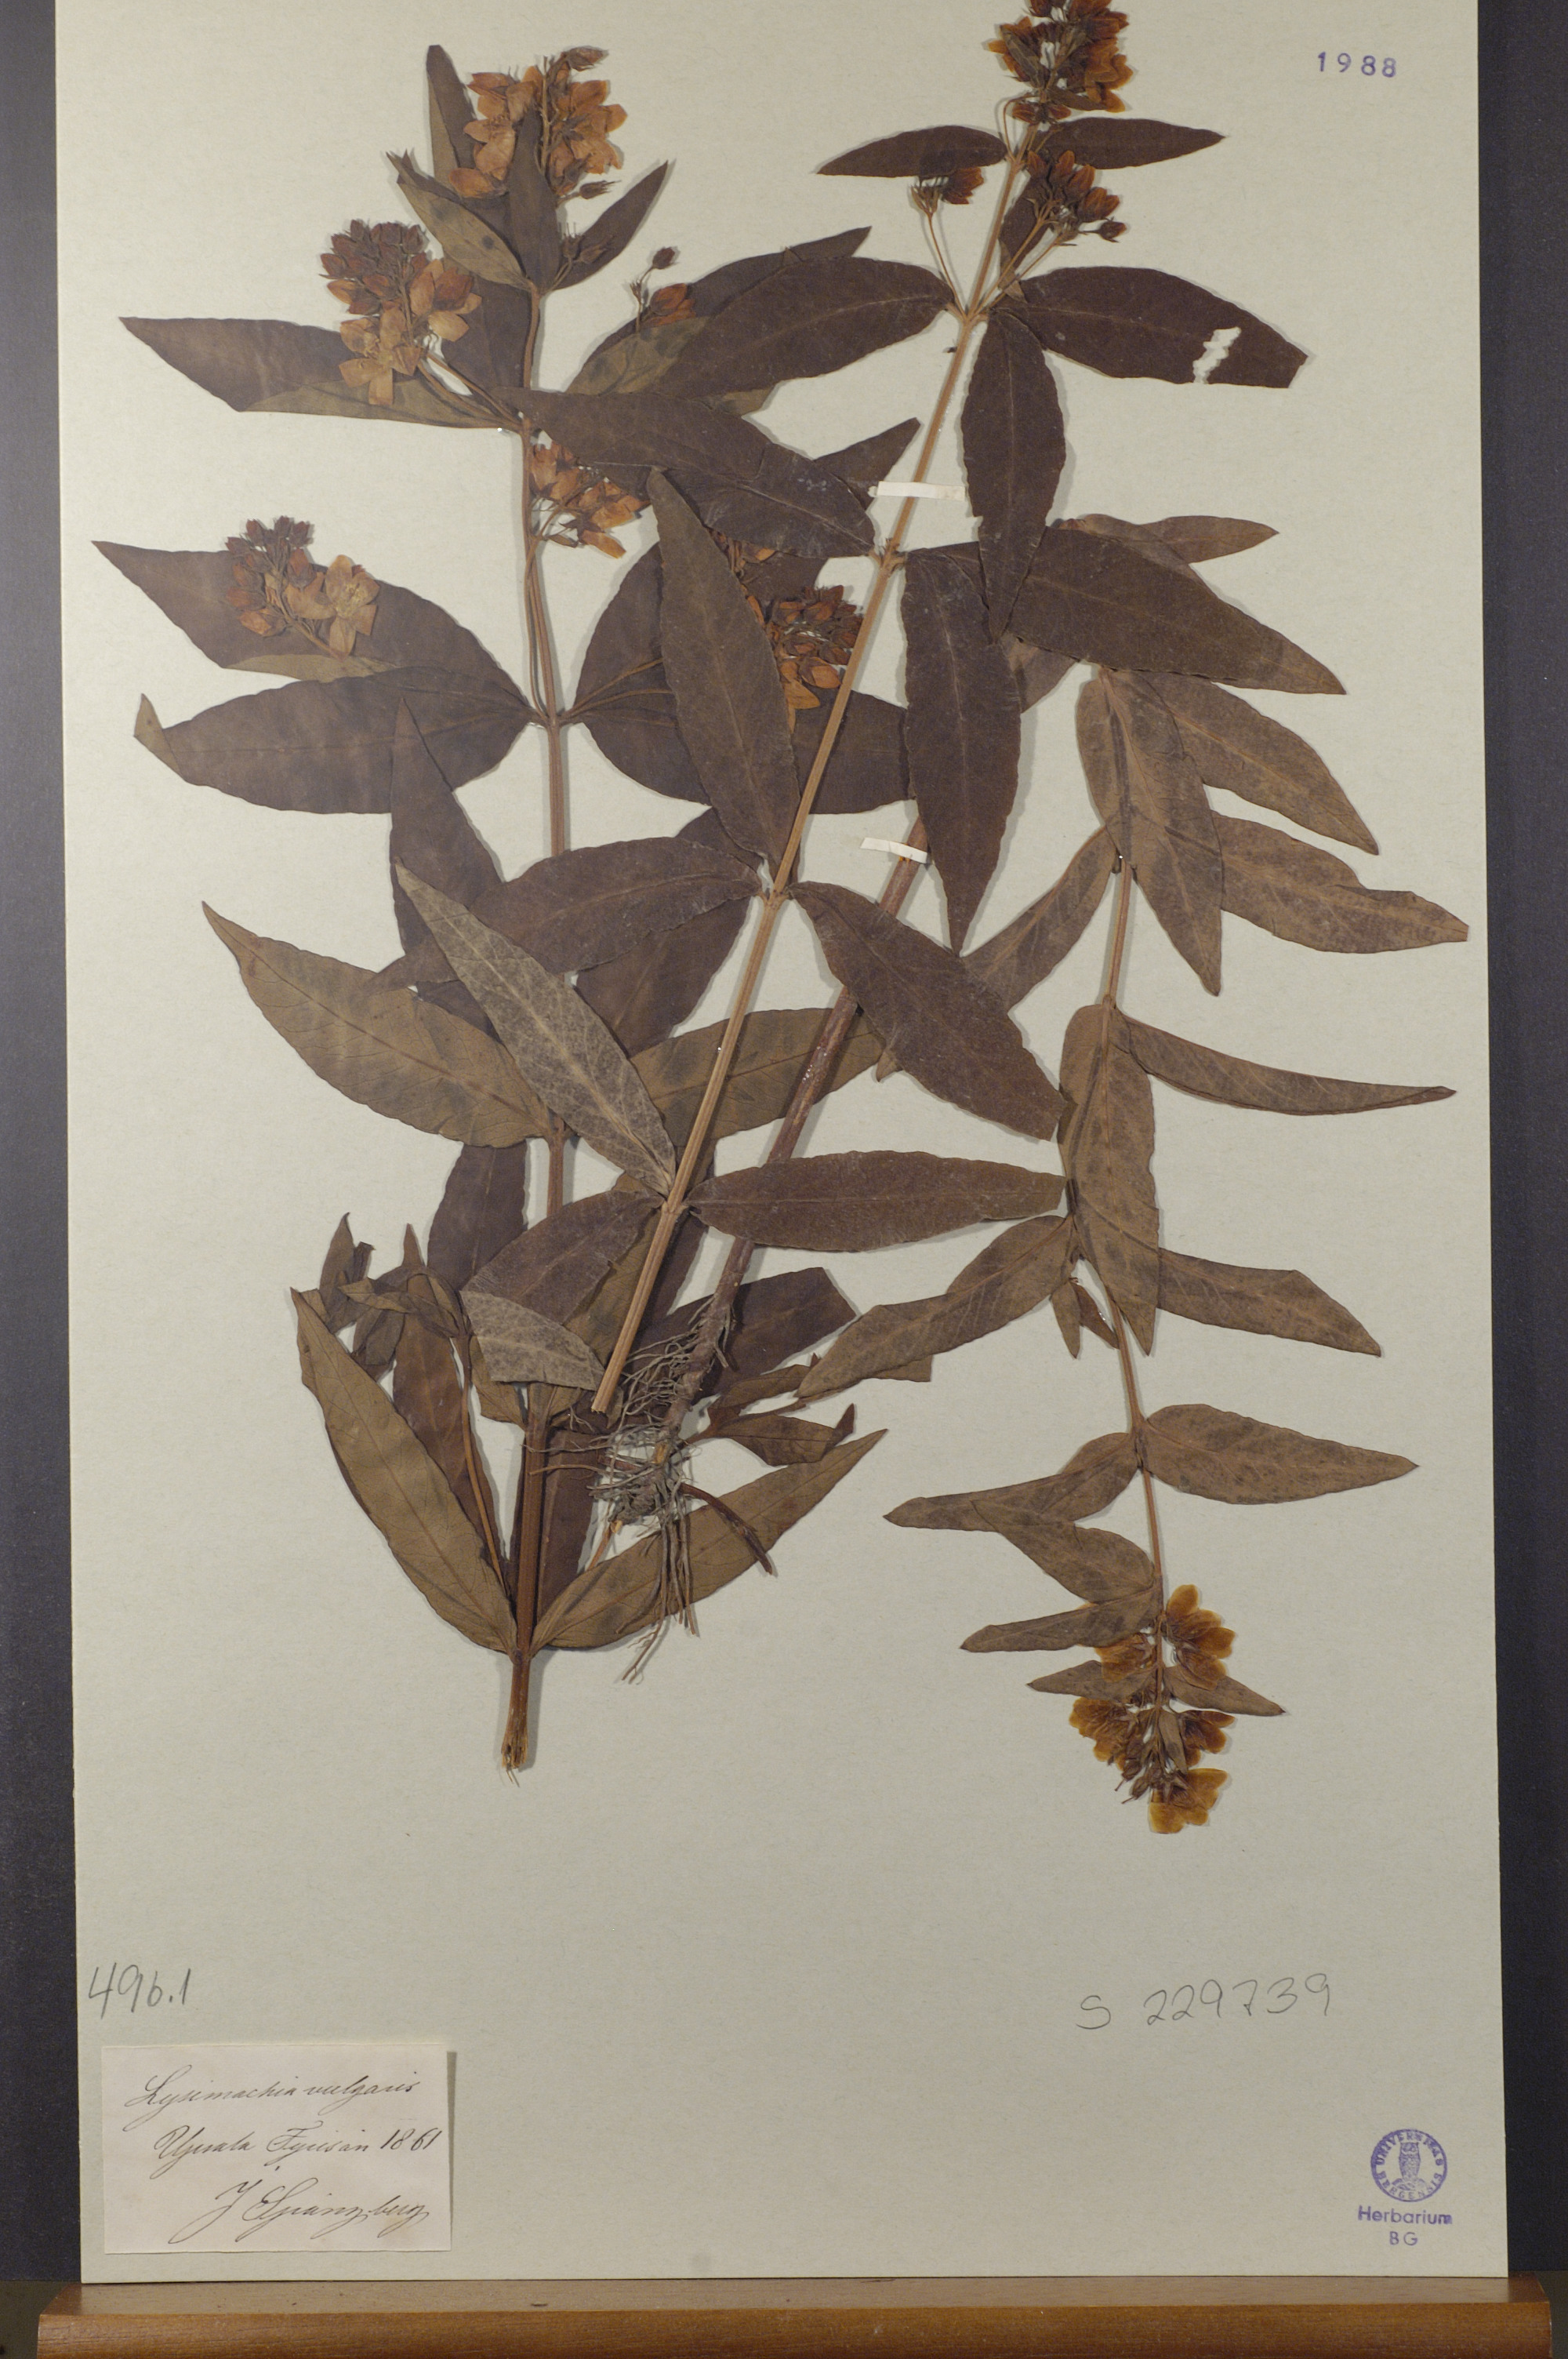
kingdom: Plantae
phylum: Tracheophyta
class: Magnoliopsida
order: Ericales
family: Primulaceae
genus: Lysimachia
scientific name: Lysimachia vulgaris
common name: Yellow loosestrife
